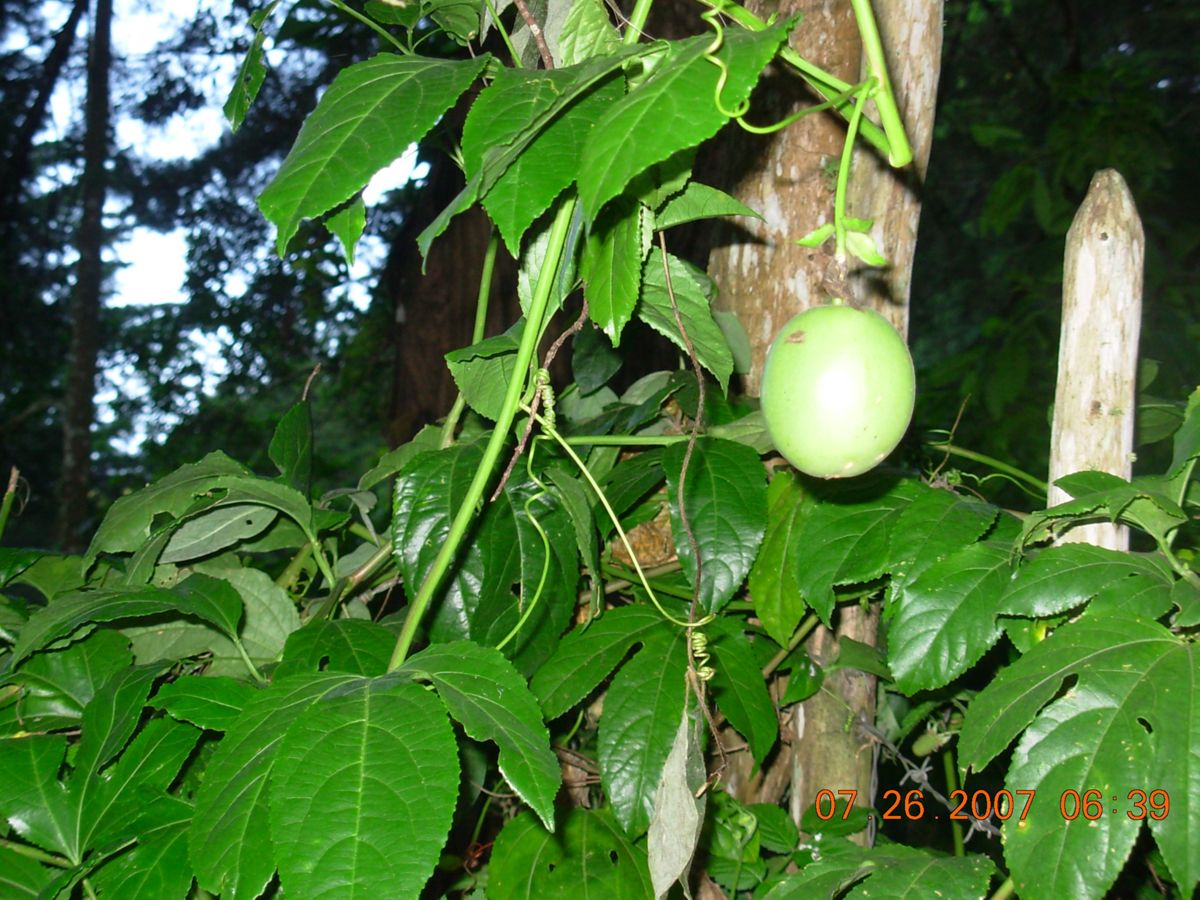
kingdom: Plantae
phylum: Tracheophyta
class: Magnoliopsida
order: Malpighiales
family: Passifloraceae
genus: Passiflora
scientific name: Passiflora edulis
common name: Purple granadilla
